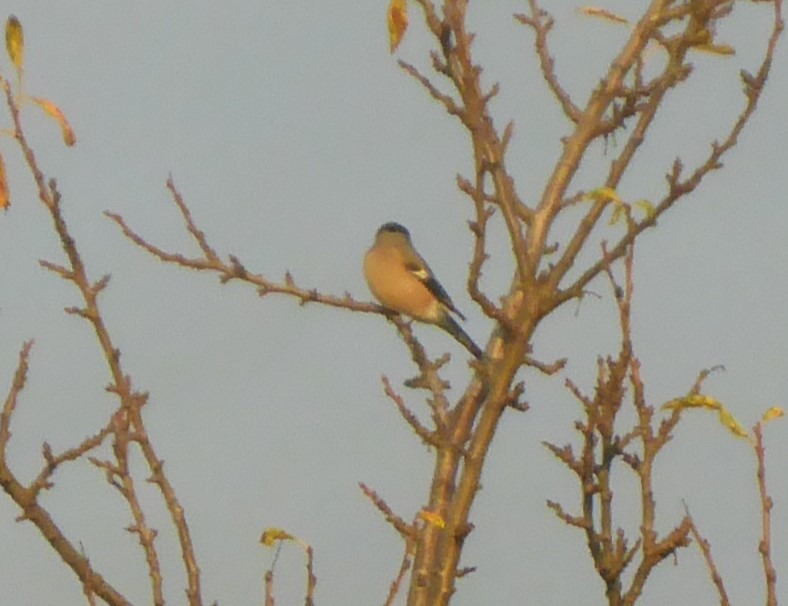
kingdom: Animalia
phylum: Chordata
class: Aves
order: Passeriformes
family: Fringillidae
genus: Pyrrhula
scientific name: Pyrrhula pyrrhula
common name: Dompap
